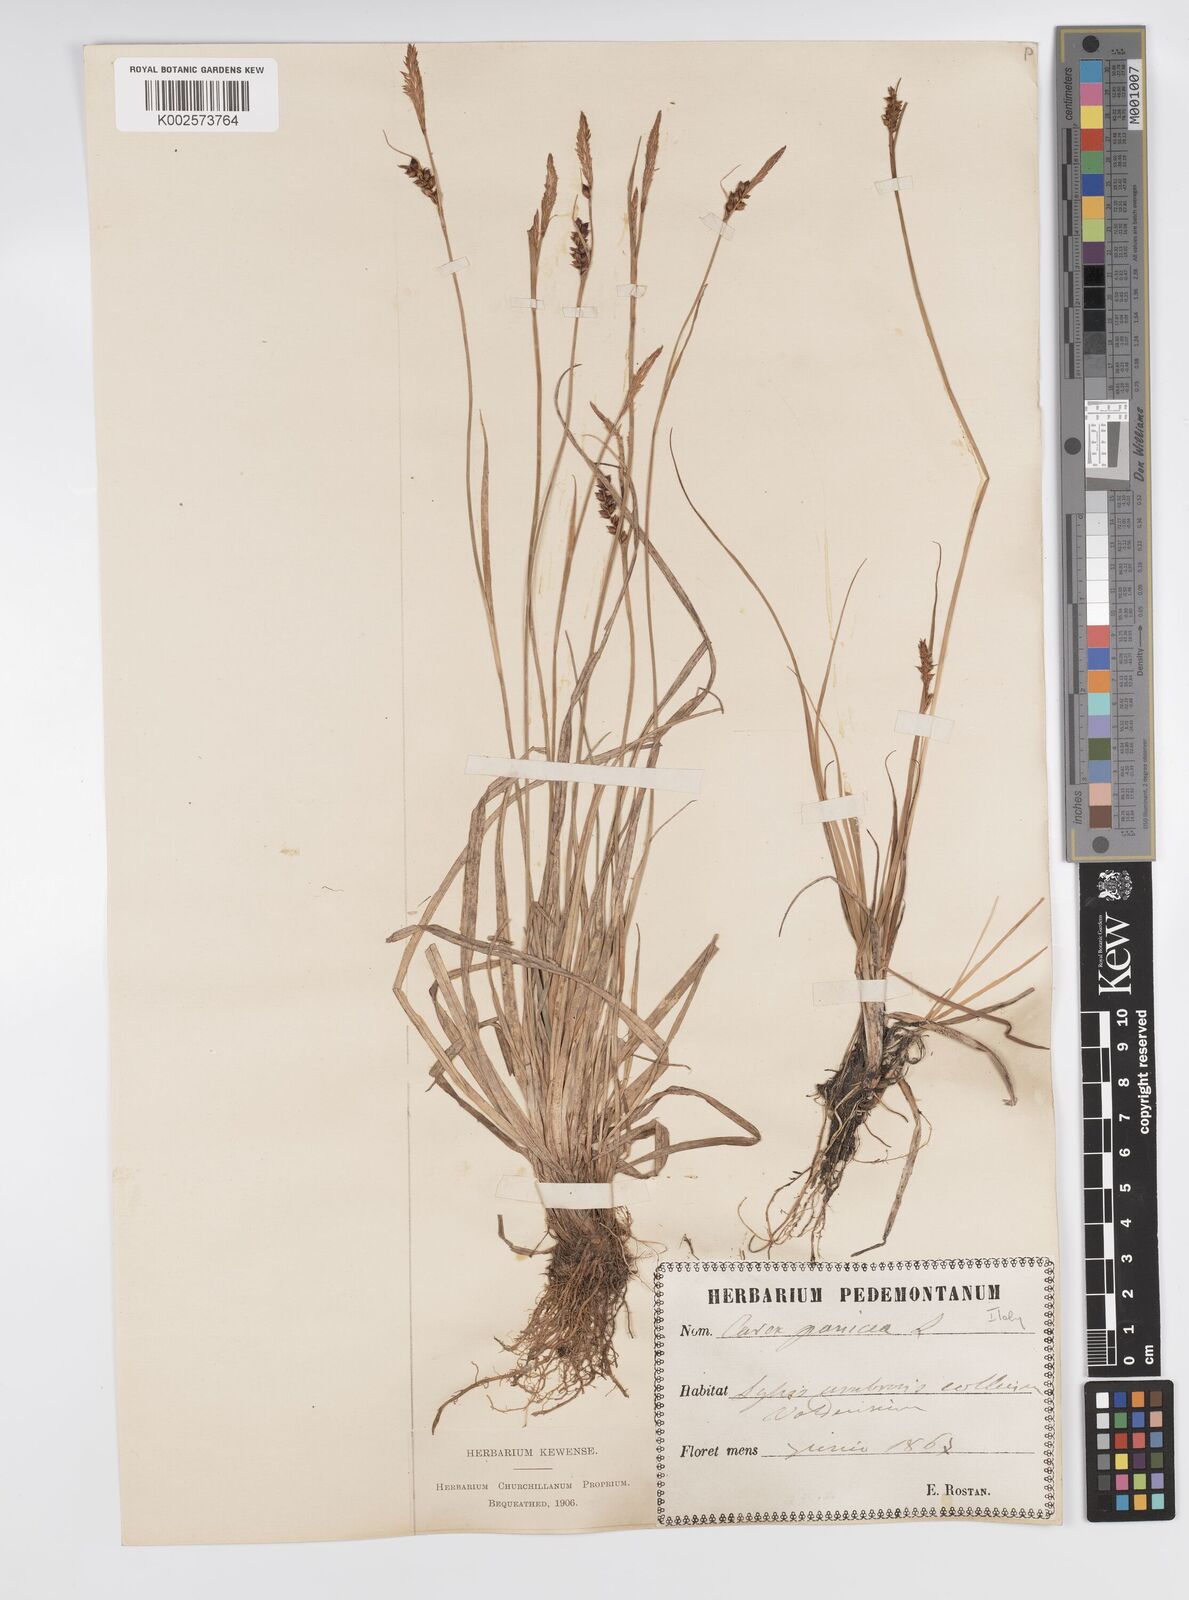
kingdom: Plantae
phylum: Tracheophyta
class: Liliopsida
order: Poales
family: Cyperaceae
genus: Carex
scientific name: Carex panicea
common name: Carnation sedge
